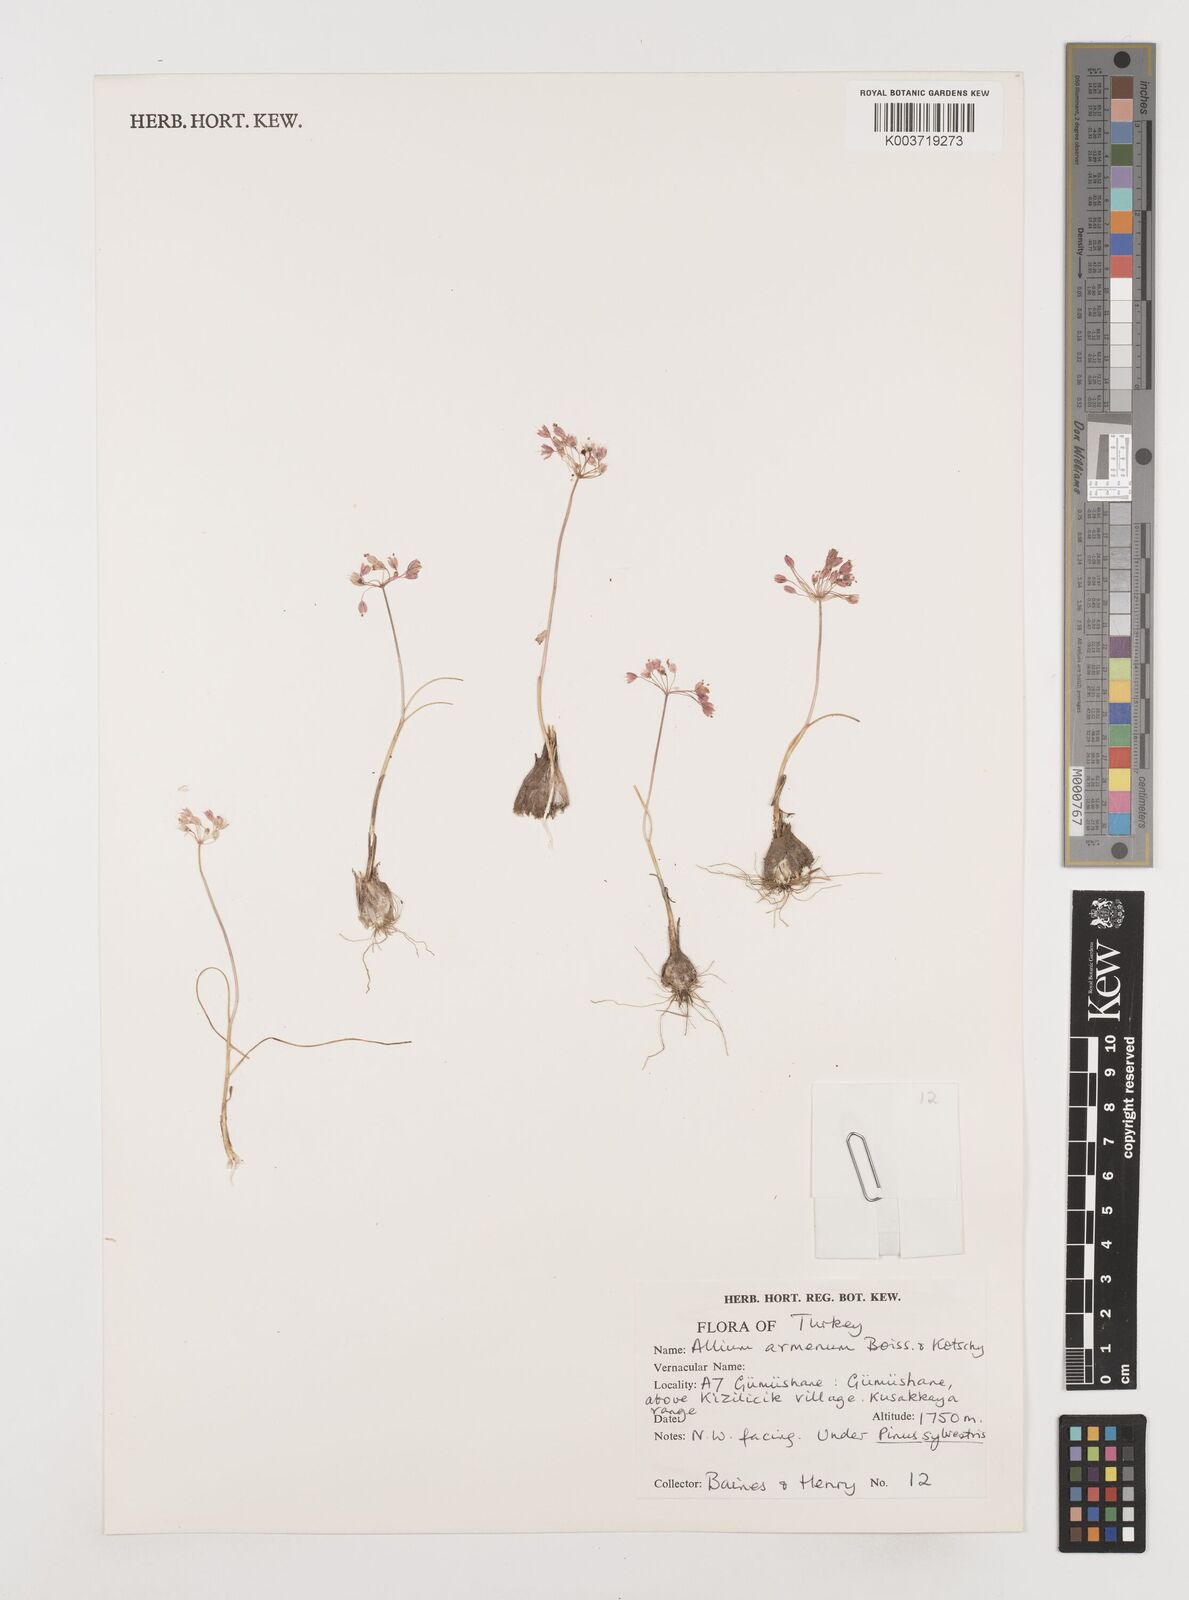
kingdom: Plantae
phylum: Tracheophyta
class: Liliopsida
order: Asparagales
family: Amaryllidaceae
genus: Allium
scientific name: Allium armenum
